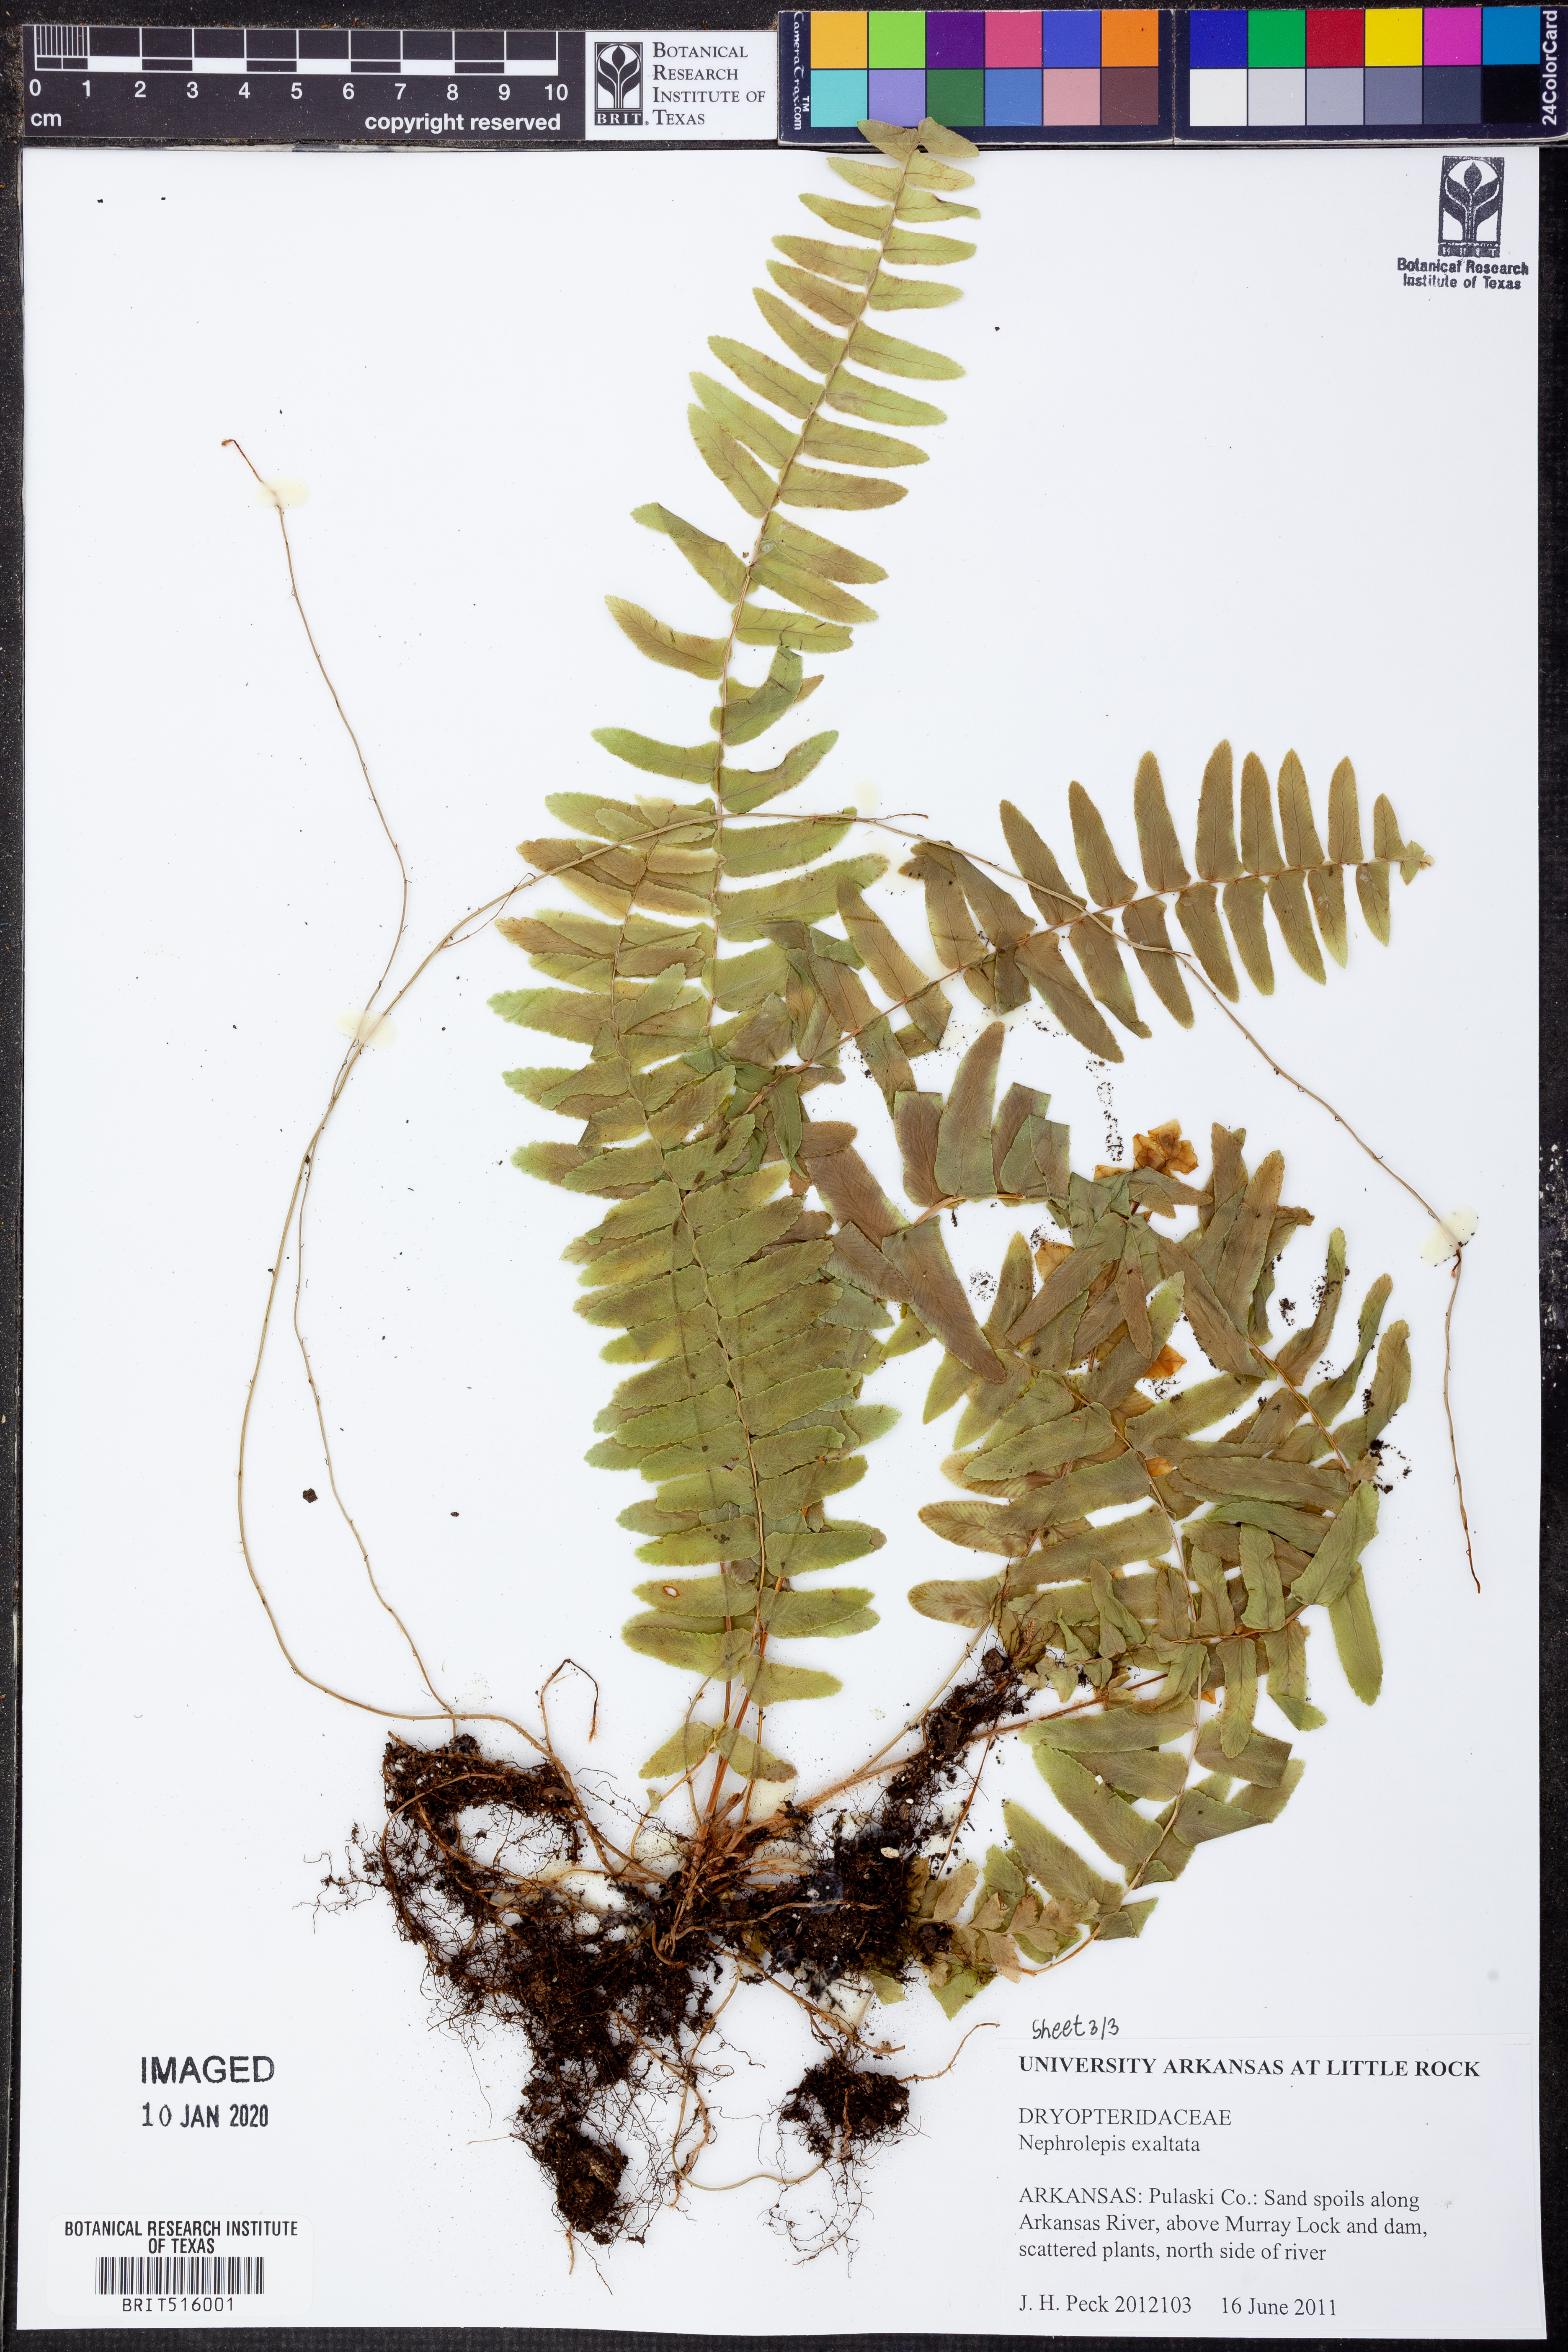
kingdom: Plantae
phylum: Tracheophyta
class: Polypodiopsida
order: Polypodiales
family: Nephrolepidaceae
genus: Nephrolepis
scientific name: Nephrolepis exaltata
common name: Sword fern
